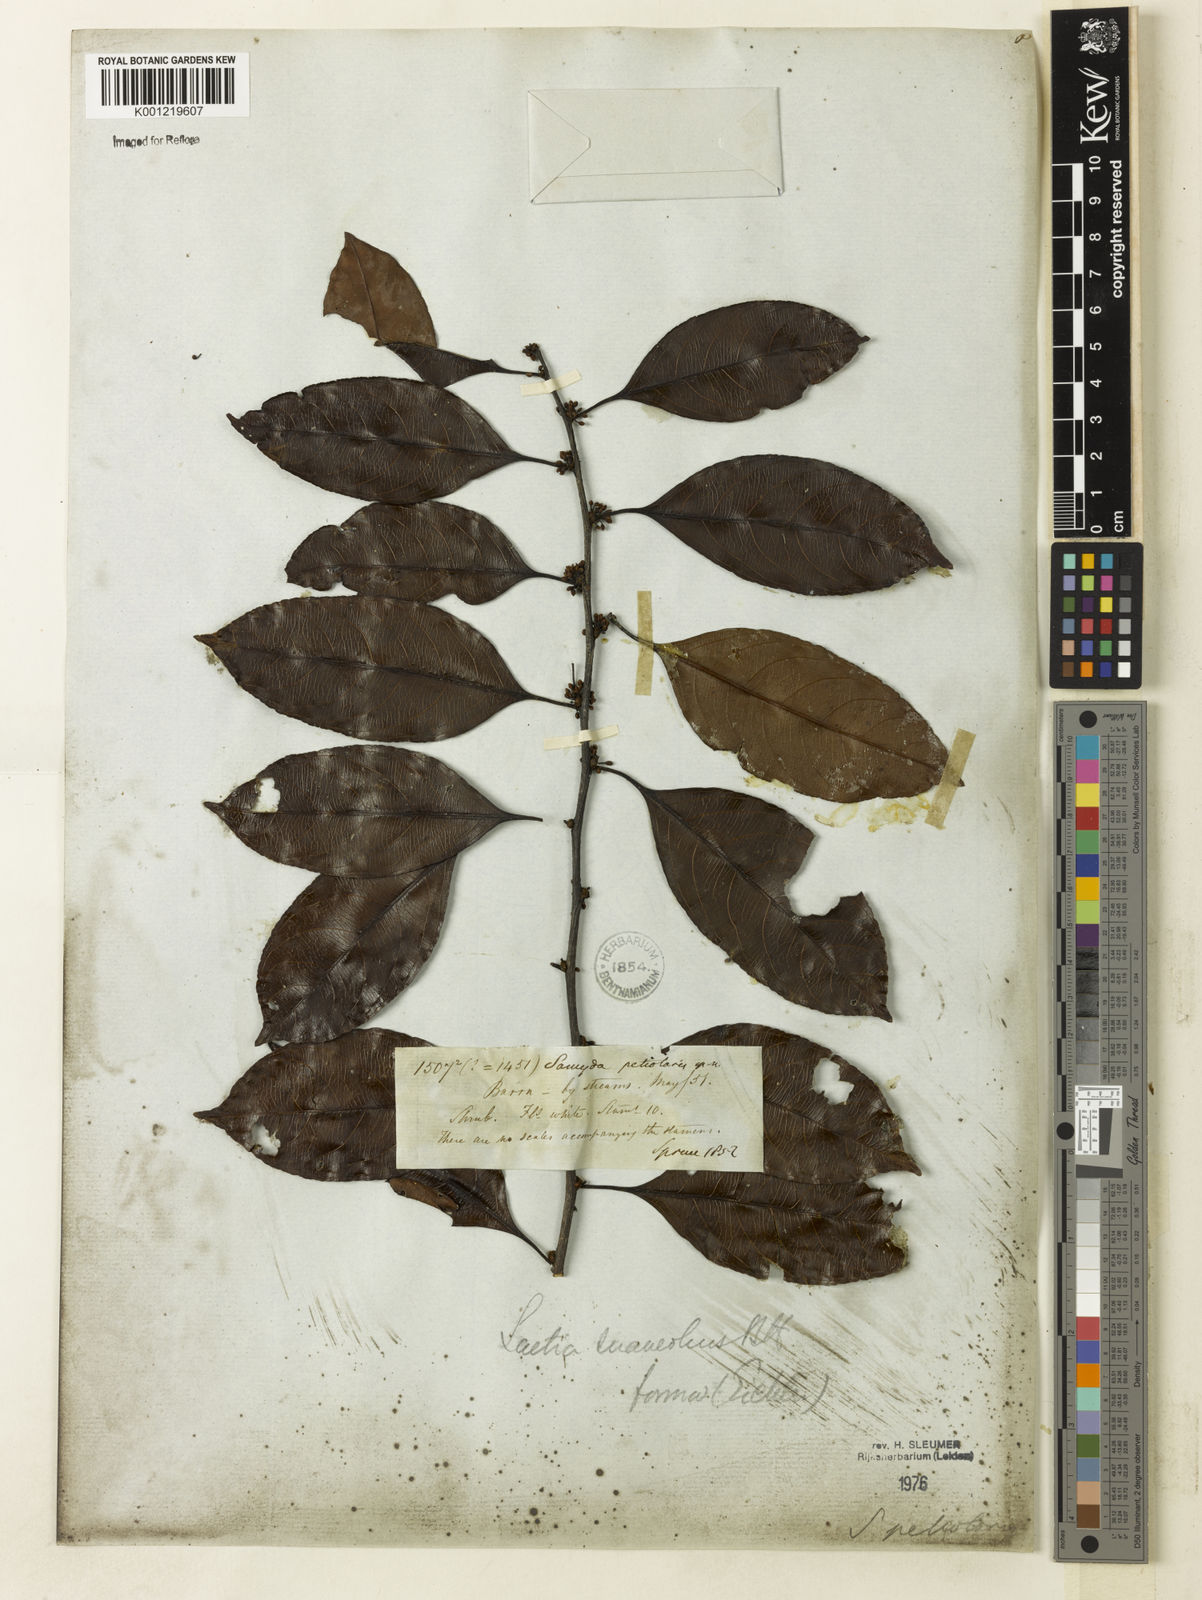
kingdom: Plantae
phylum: Tracheophyta
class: Magnoliopsida
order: Malpighiales
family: Salicaceae
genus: Casearia
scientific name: Casearia suaveolens
